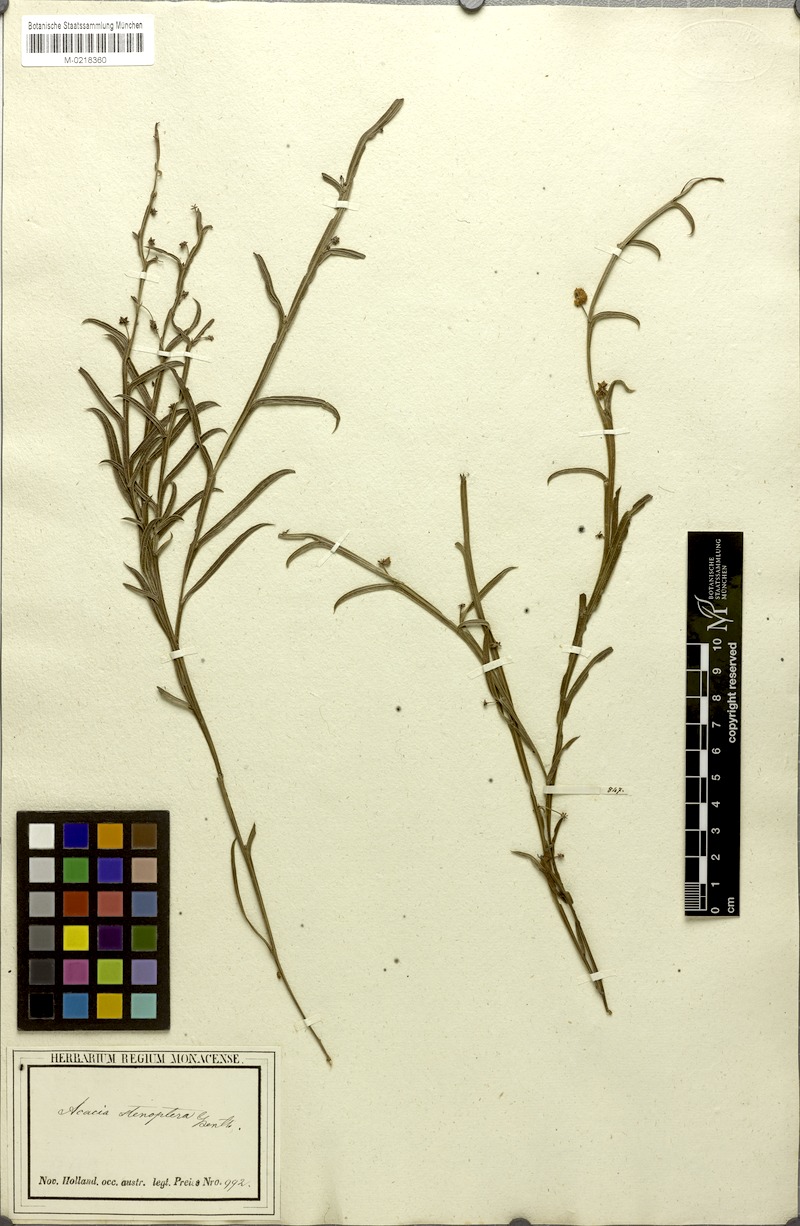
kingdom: Plantae
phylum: Tracheophyta
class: Magnoliopsida
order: Fabales
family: Fabaceae
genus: Acacia
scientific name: Acacia stenoptera
